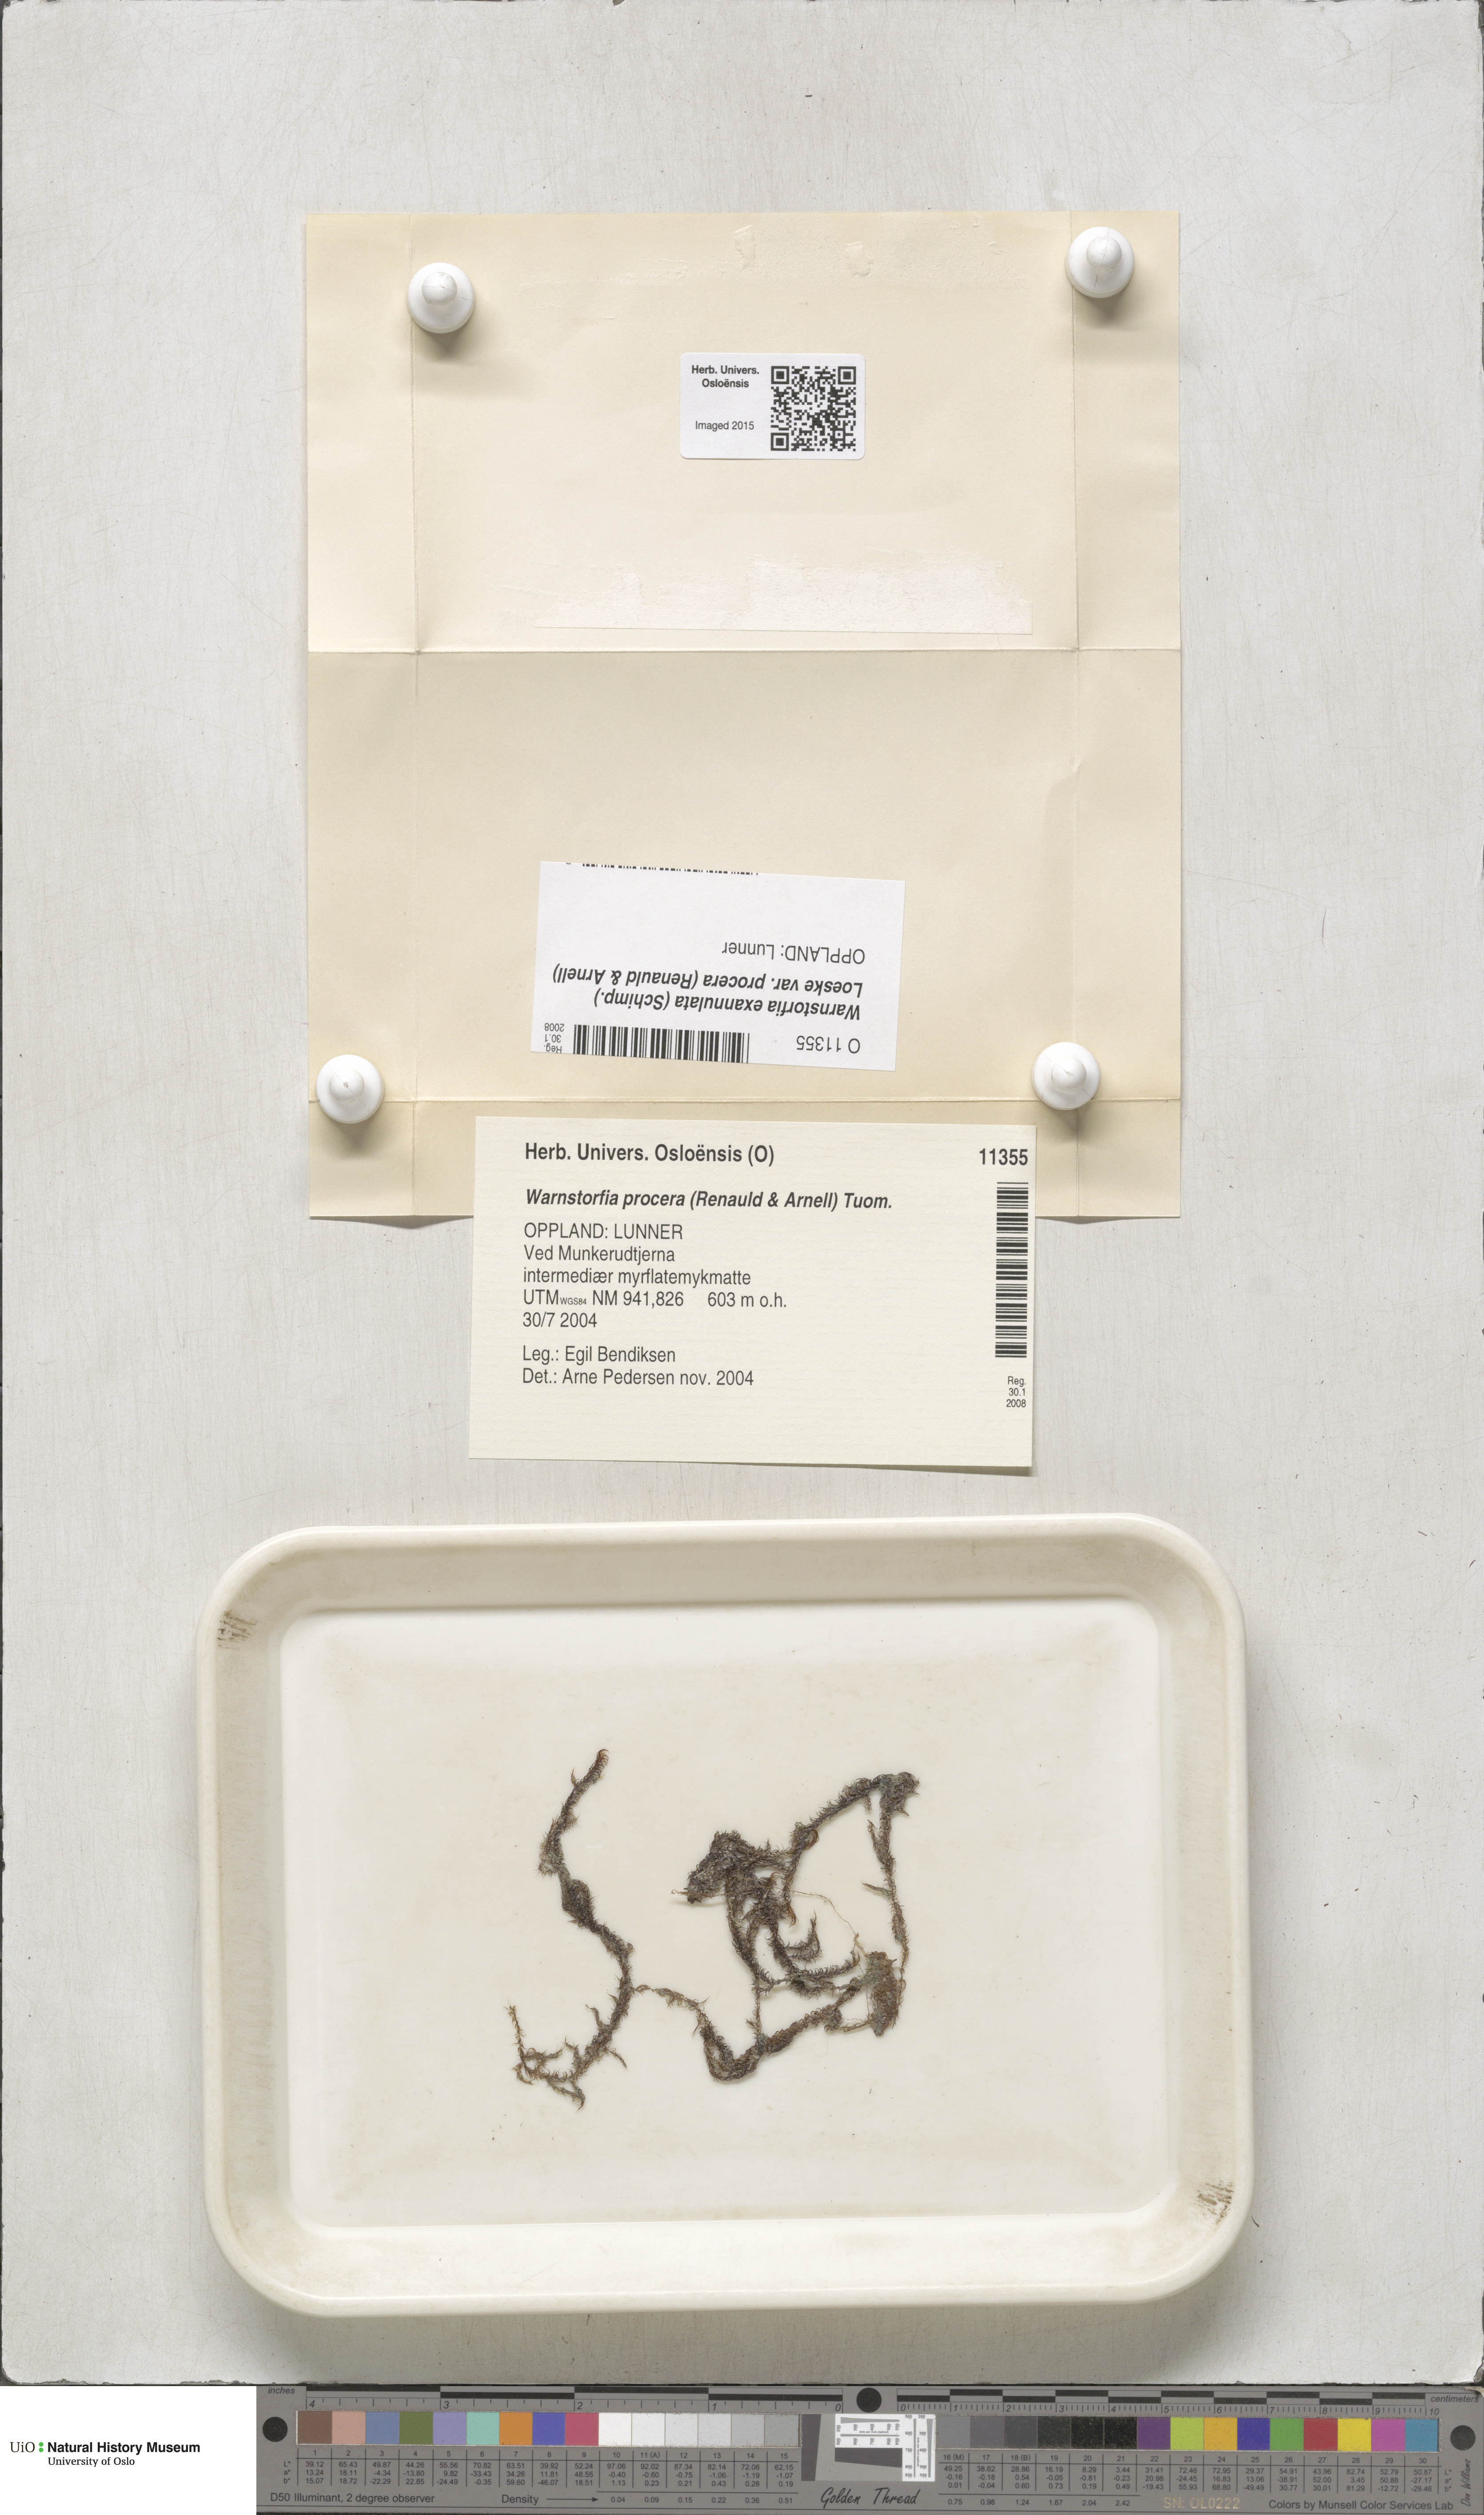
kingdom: Plantae
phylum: Bryophyta
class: Bryopsida
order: Hypnales
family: Calliergonaceae
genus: Sarmentypnum
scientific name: Sarmentypnum procerum
